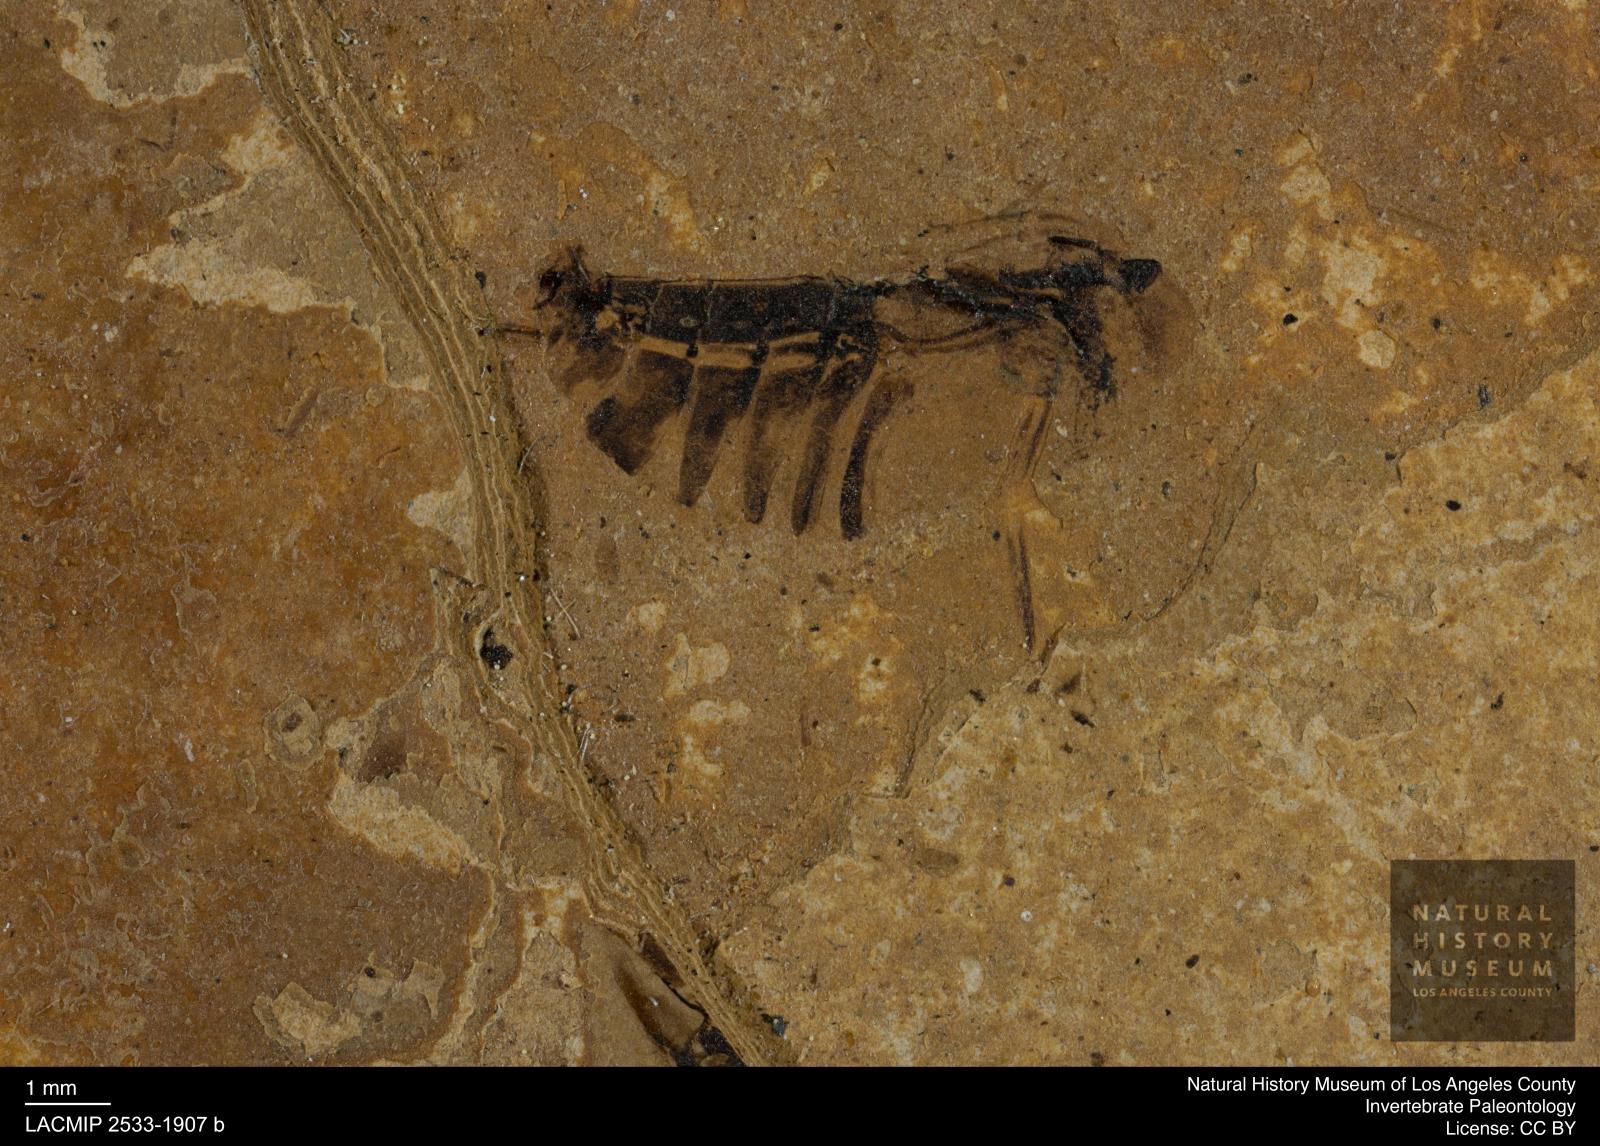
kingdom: Animalia
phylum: Arthropoda
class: Insecta
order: Hemiptera
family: Notonectidae
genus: Anisops
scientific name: Anisops Notonecta deichmuelleri
